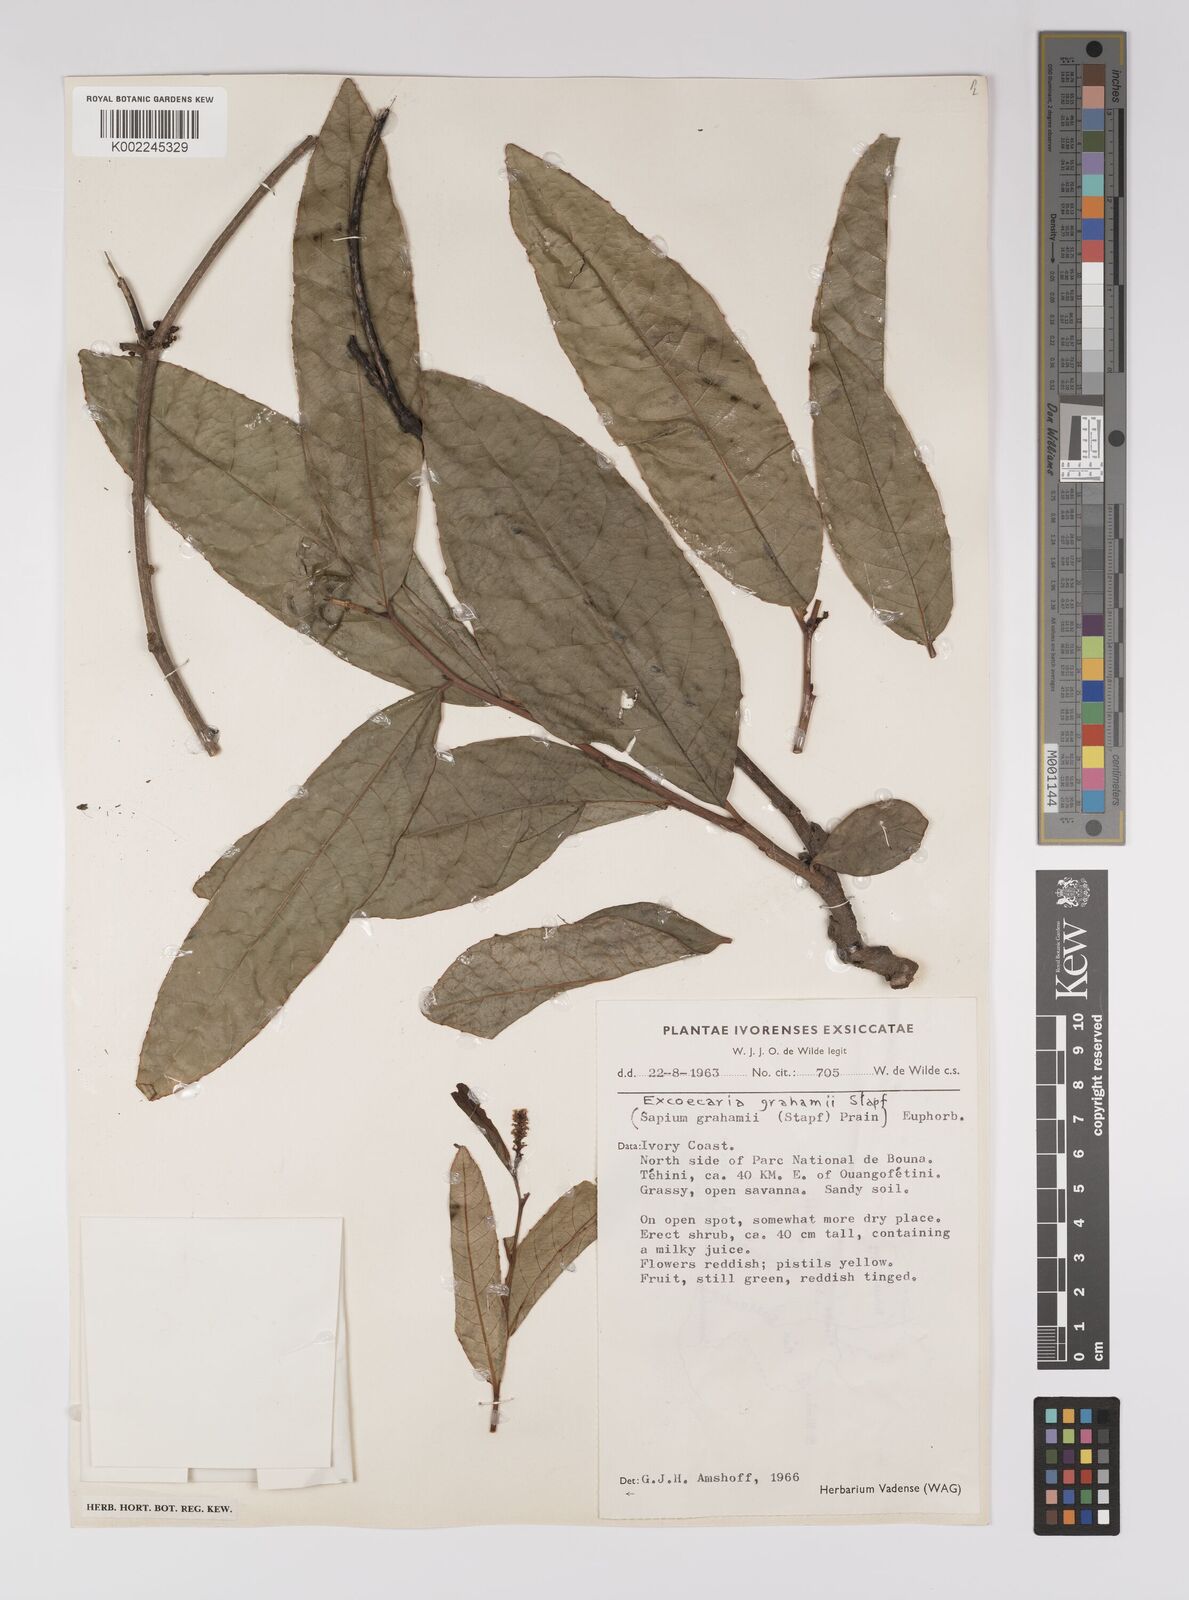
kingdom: Plantae
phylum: Tracheophyta
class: Magnoliopsida
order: Malpighiales
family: Euphorbiaceae
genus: Excoecaria
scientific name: Excoecaria grahamii
